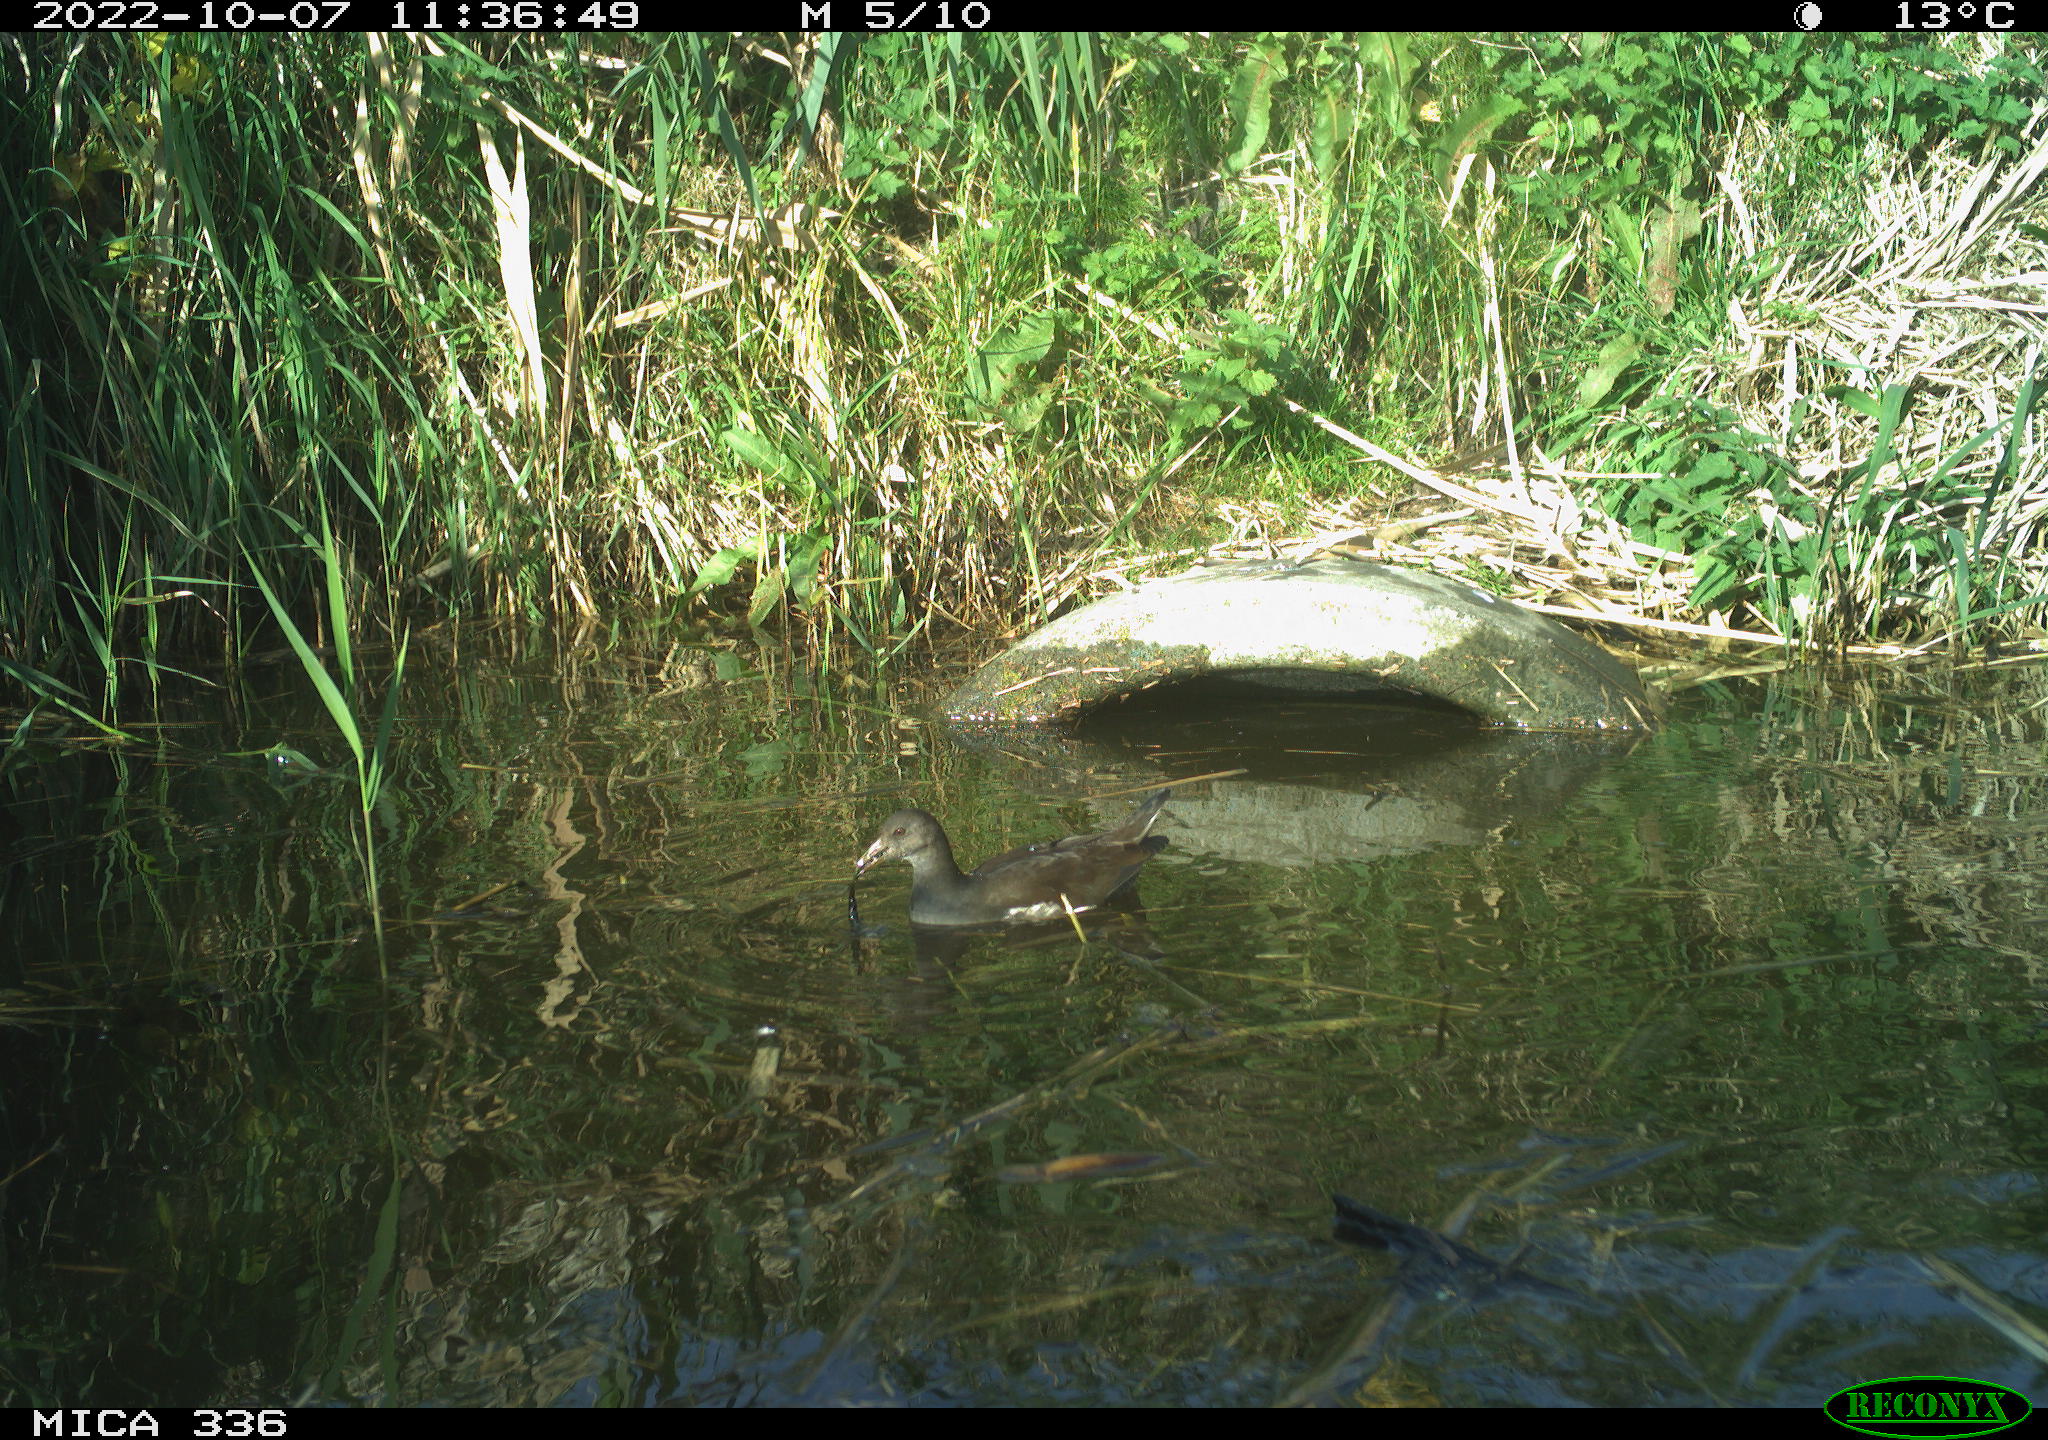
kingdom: Animalia
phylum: Chordata
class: Aves
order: Gruiformes
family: Rallidae
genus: Gallinula
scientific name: Gallinula chloropus
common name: Common moorhen
